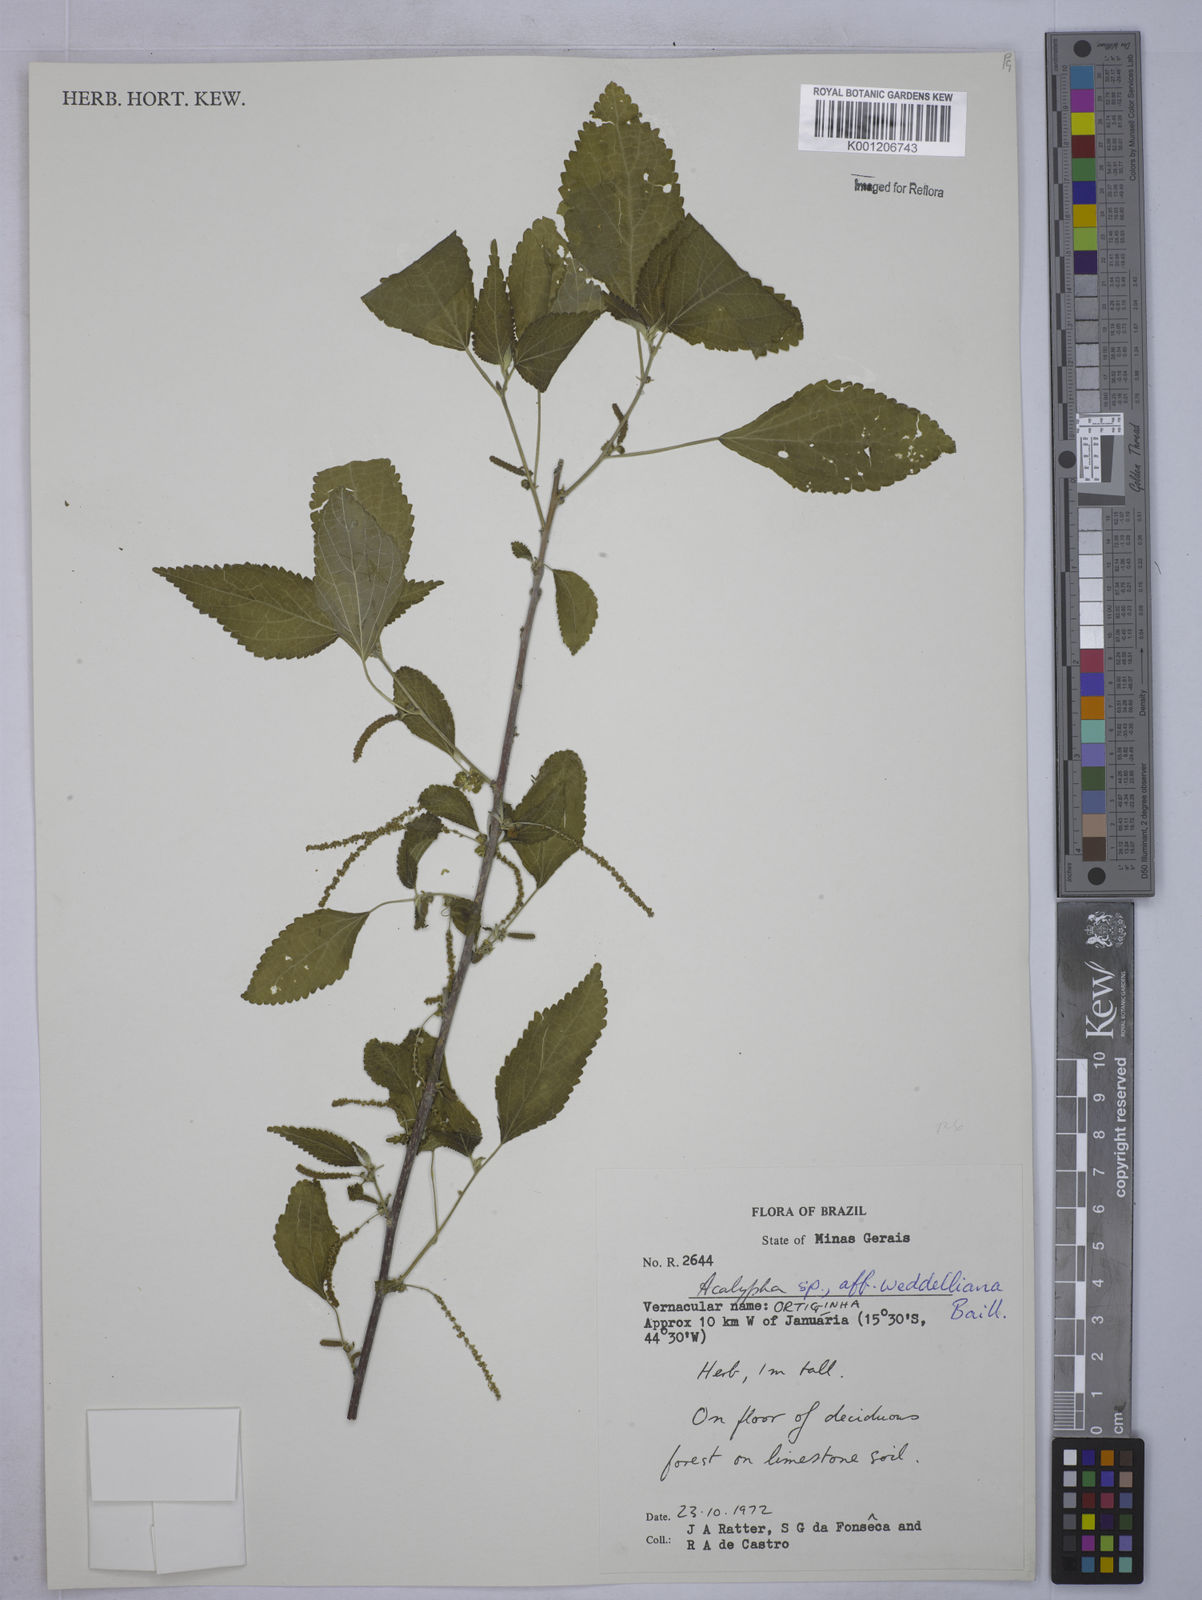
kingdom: Plantae
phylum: Tracheophyta
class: Magnoliopsida
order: Malpighiales
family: Euphorbiaceae
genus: Acalypha
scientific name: Acalypha weddelliana
